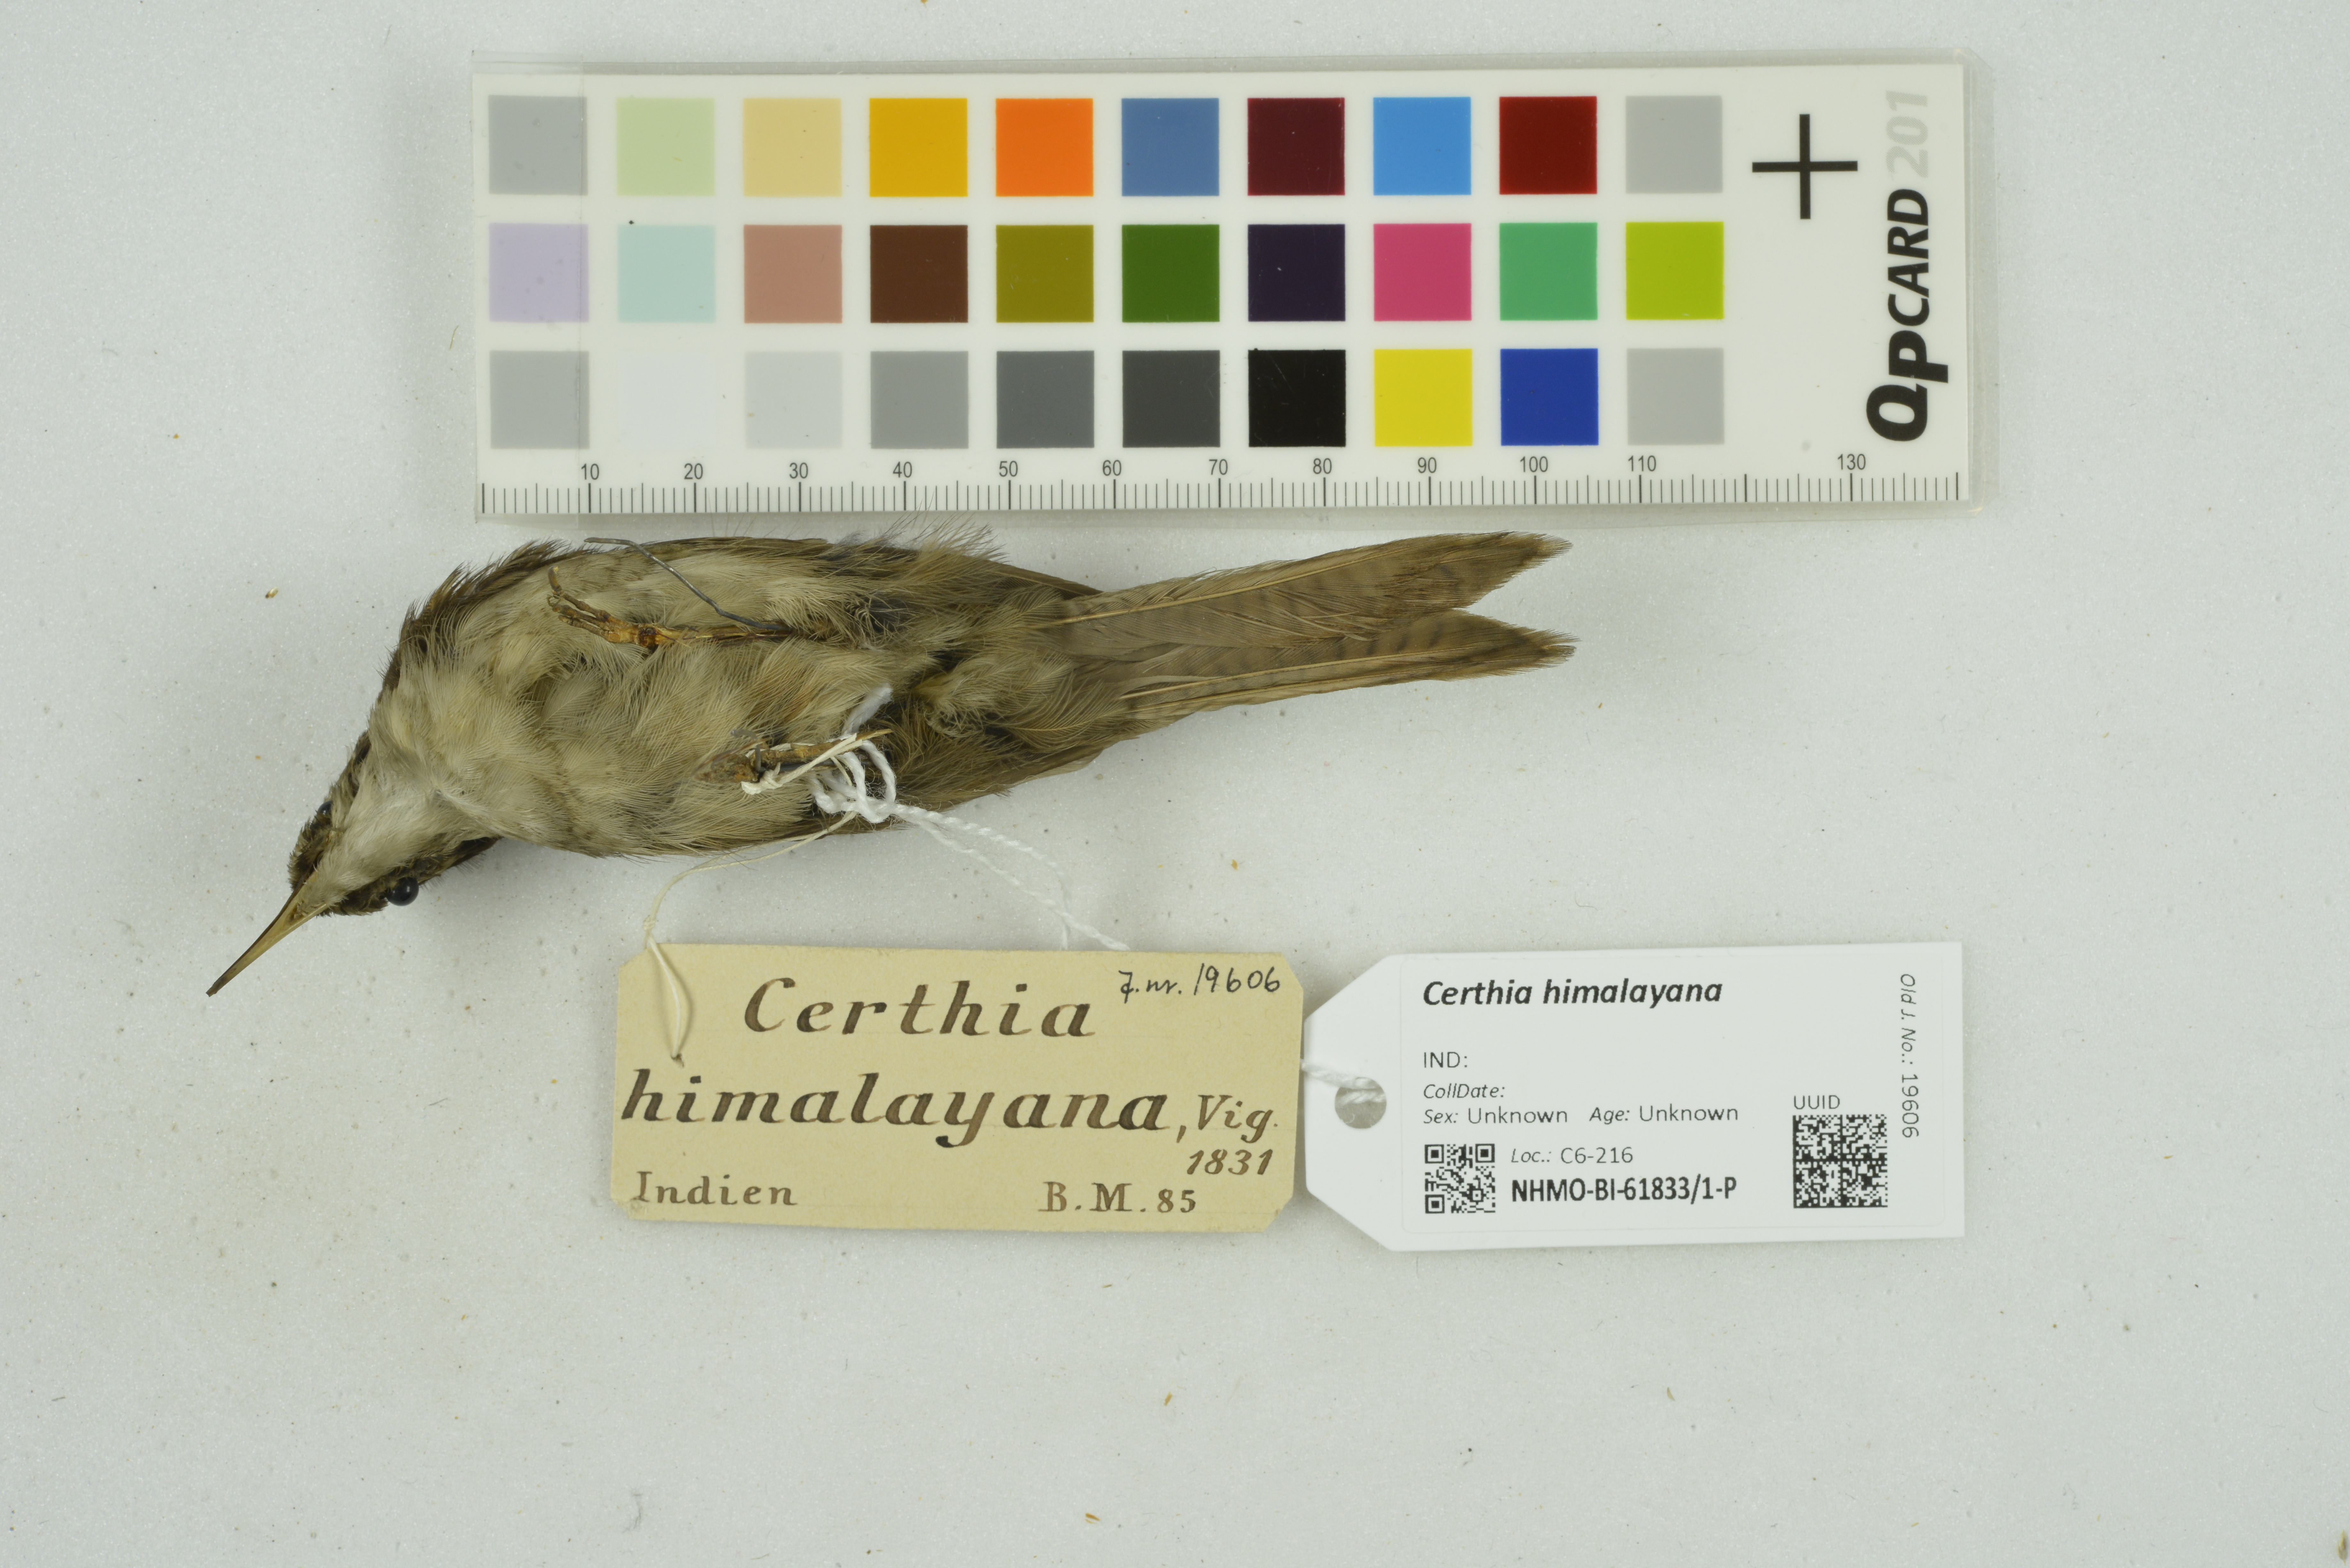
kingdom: Animalia
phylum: Chordata
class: Aves
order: Passeriformes
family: Certhiidae
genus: Certhia
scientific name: Certhia himalayana
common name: Bar-tailed treecreeper
